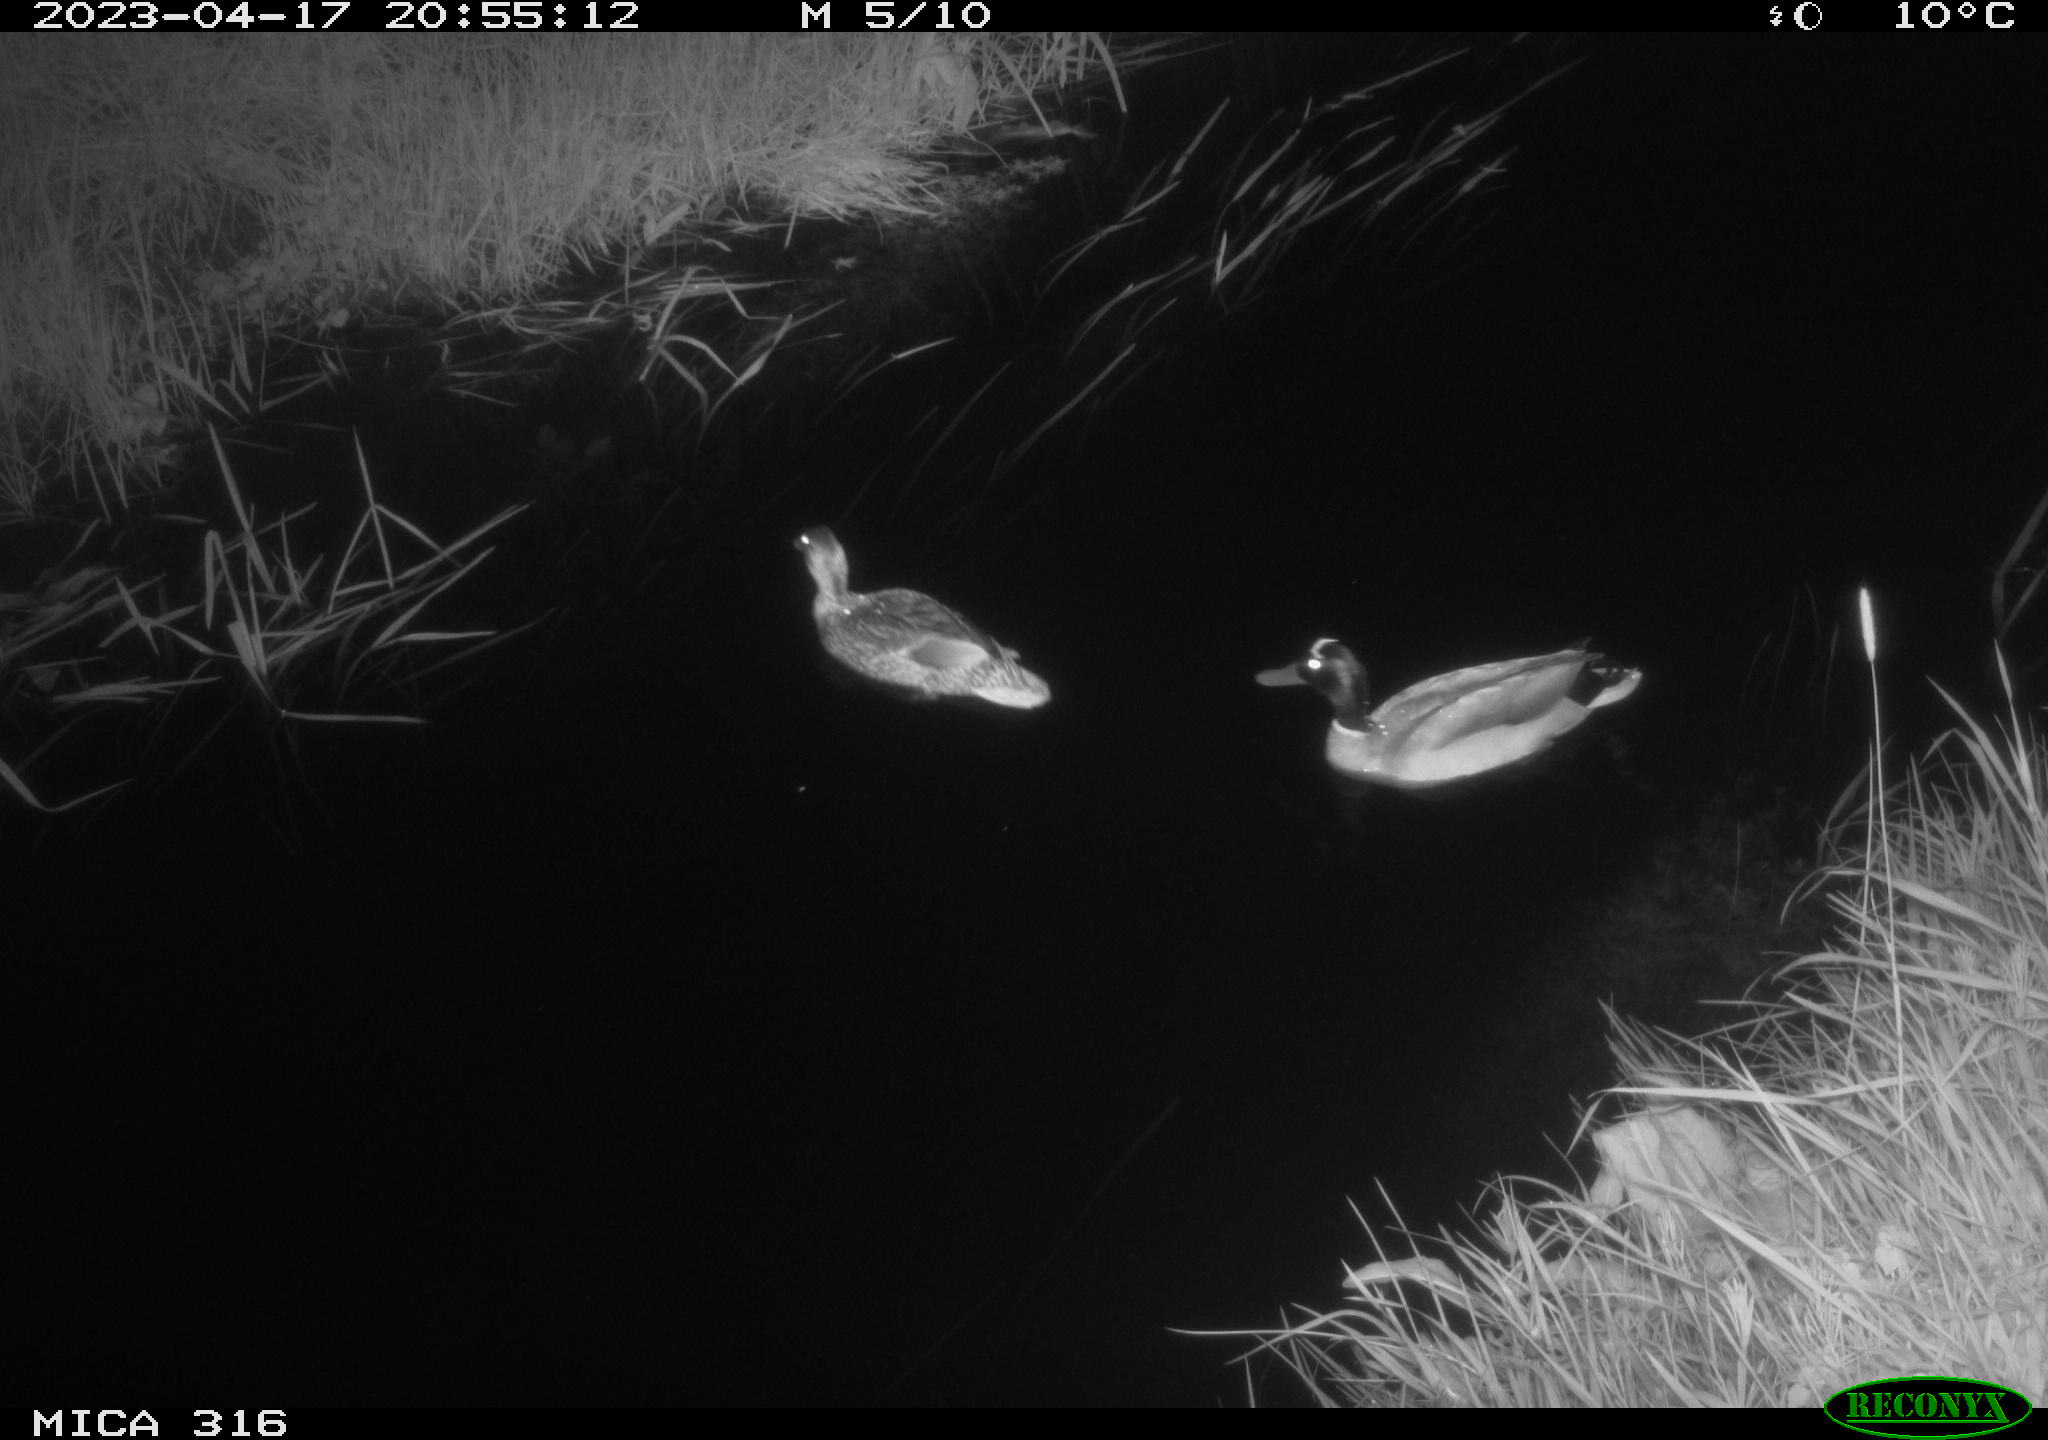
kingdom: Animalia
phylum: Chordata
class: Aves
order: Anseriformes
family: Anatidae
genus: Anas
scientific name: Anas
